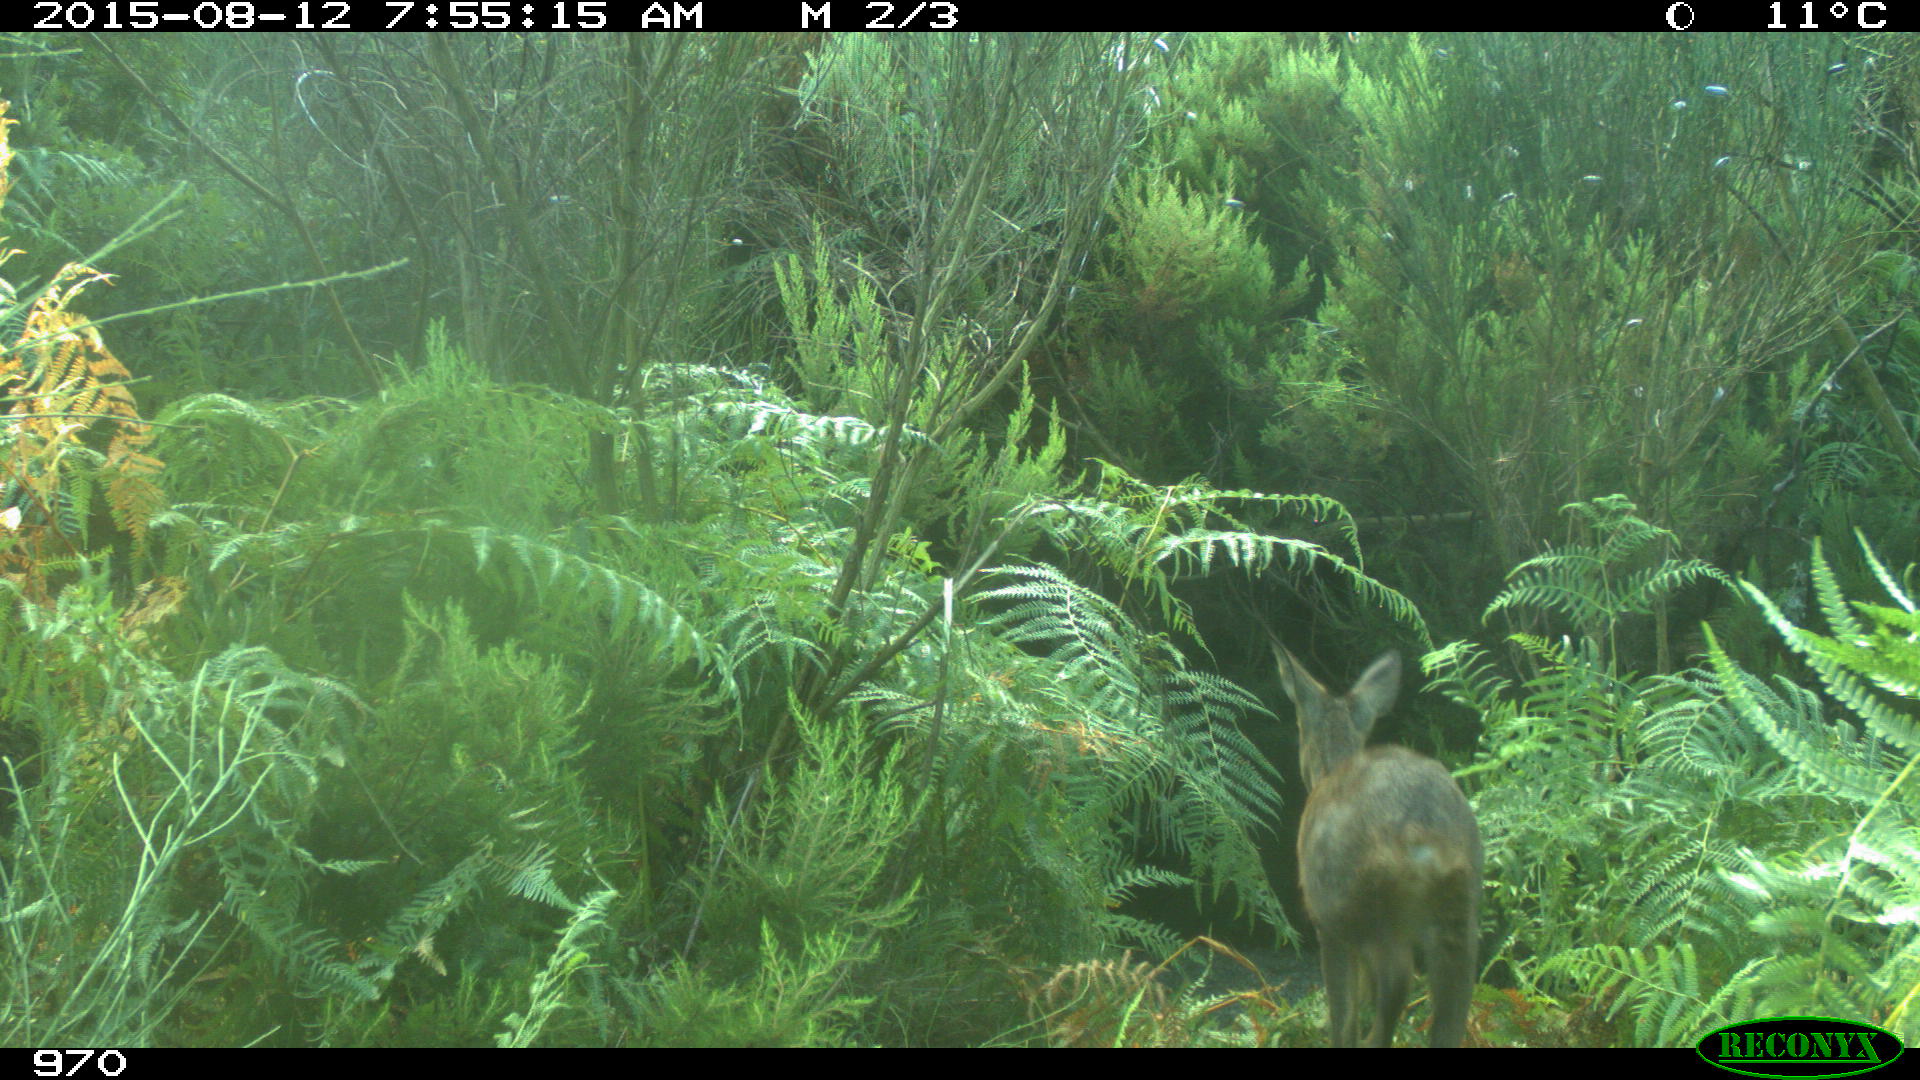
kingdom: Animalia
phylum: Chordata
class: Mammalia
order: Artiodactyla
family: Cervidae
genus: Capreolus
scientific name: Capreolus capreolus
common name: Western roe deer
